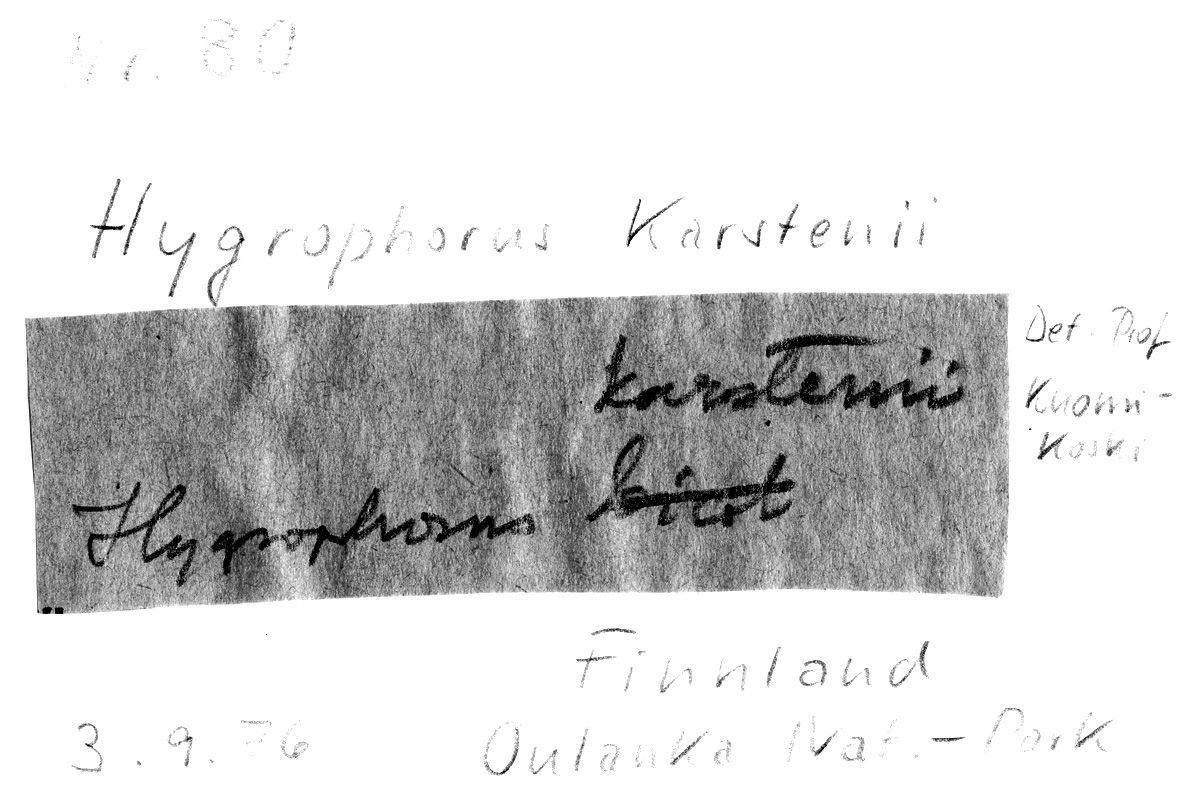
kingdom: Fungi
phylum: Basidiomycota
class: Agaricomycetes
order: Agaricales
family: Hygrophoraceae
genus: Cuphophyllus
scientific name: Cuphophyllus pratensis
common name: Meadow waxcap
